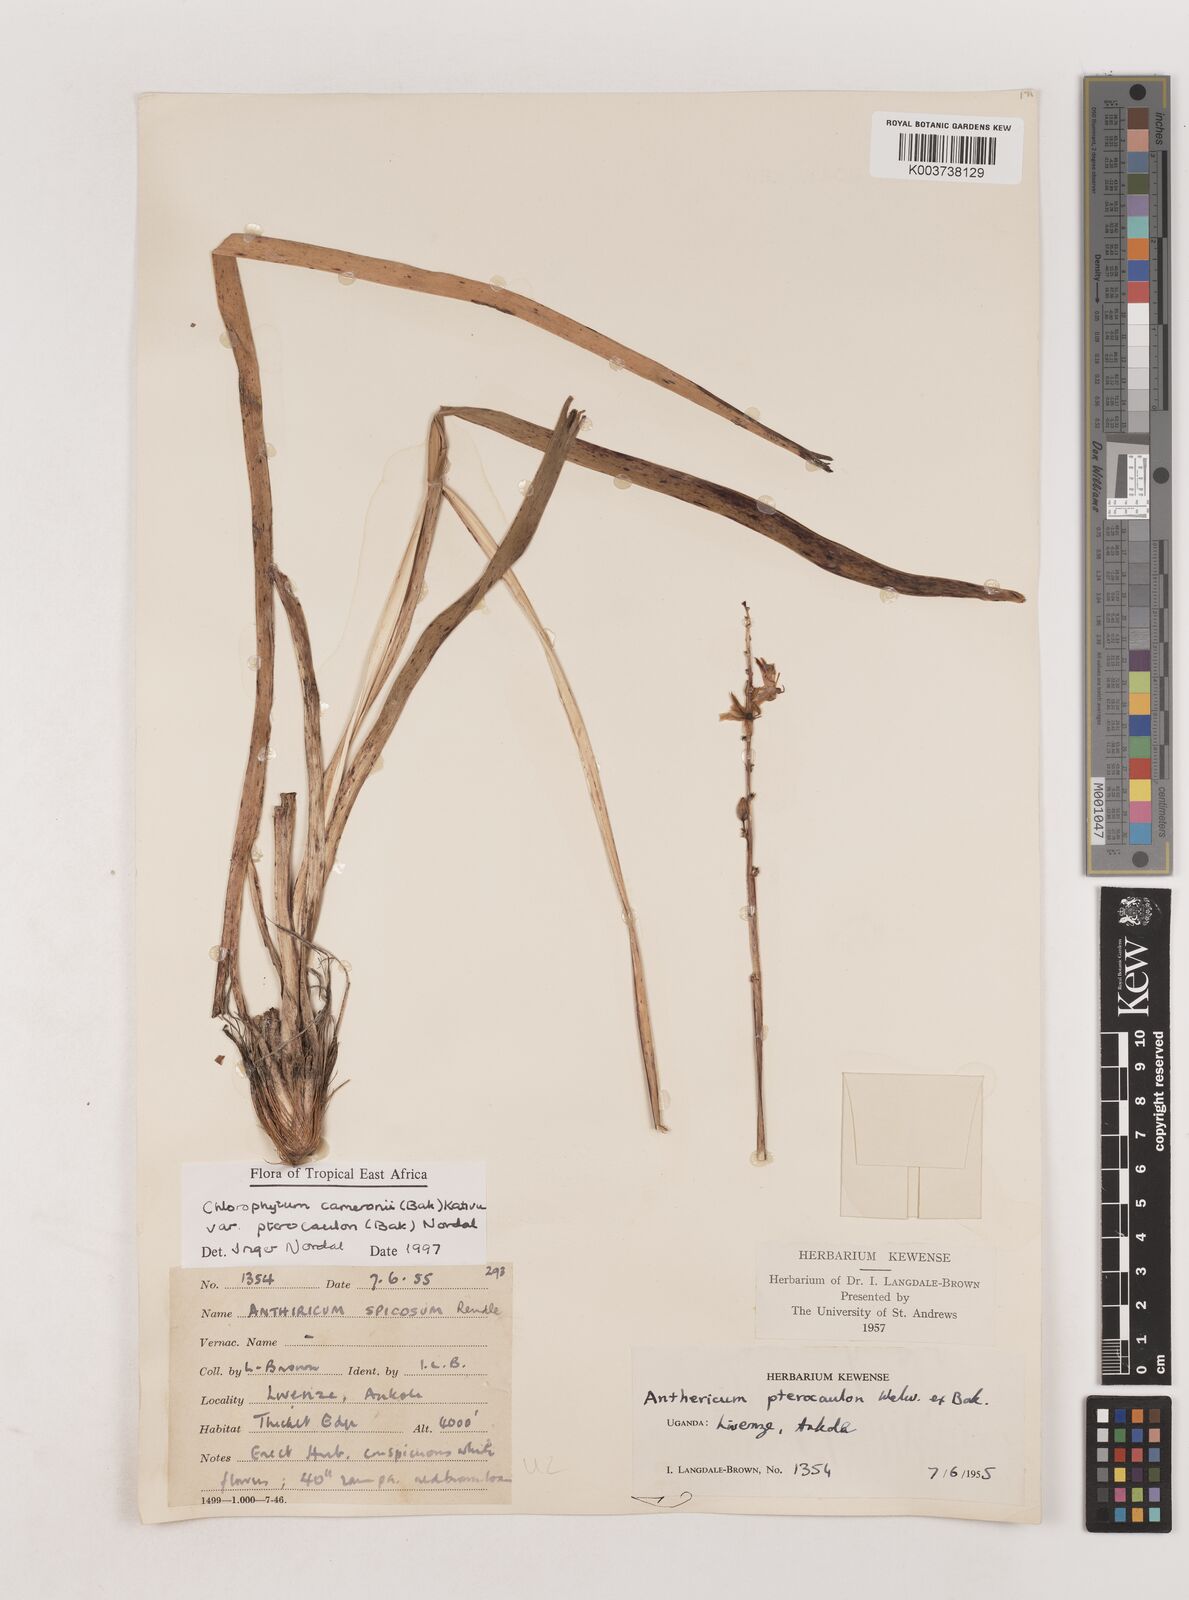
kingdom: Plantae
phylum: Tracheophyta
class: Liliopsida
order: Asparagales
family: Asparagaceae
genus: Chlorophytum
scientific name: Chlorophytum cameronii
